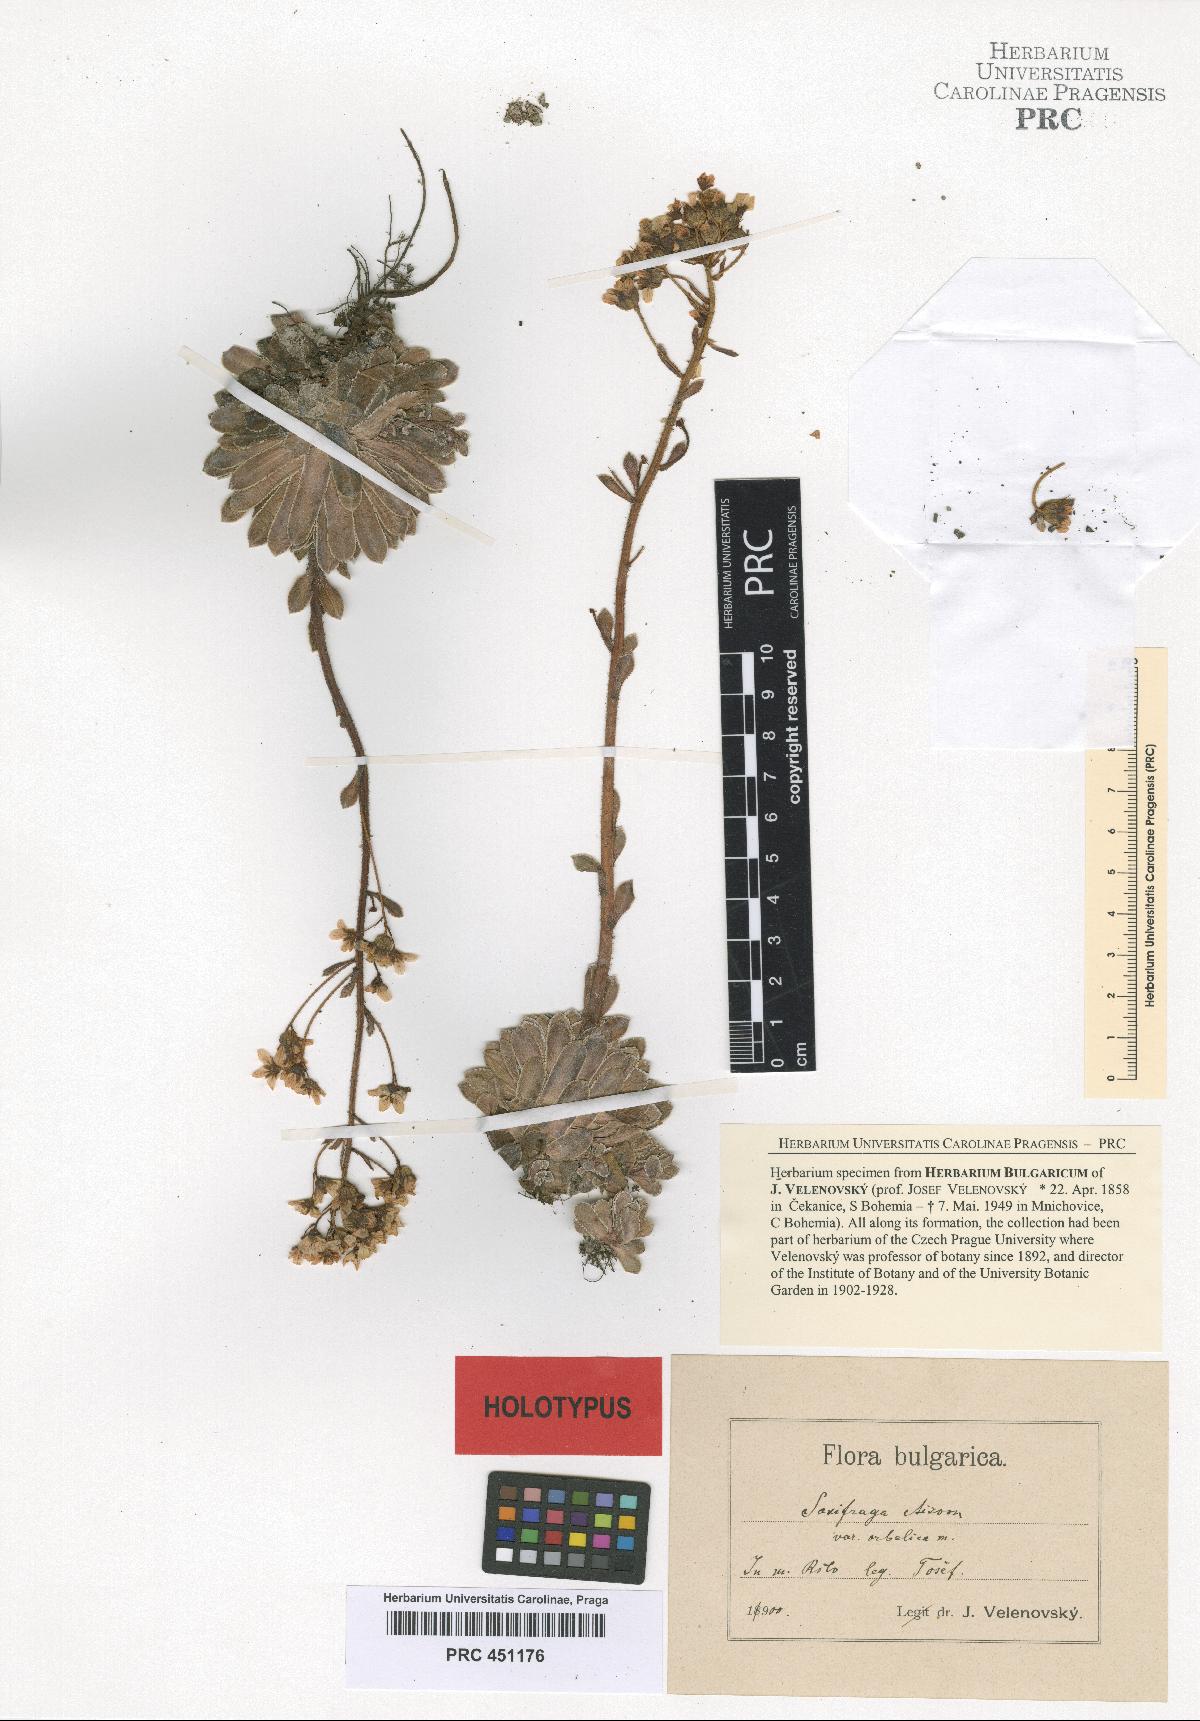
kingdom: Plantae
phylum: Tracheophyta
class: Magnoliopsida
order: Saxifragales
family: Saxifragaceae
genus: Saxifraga
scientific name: Saxifraga aizoon
